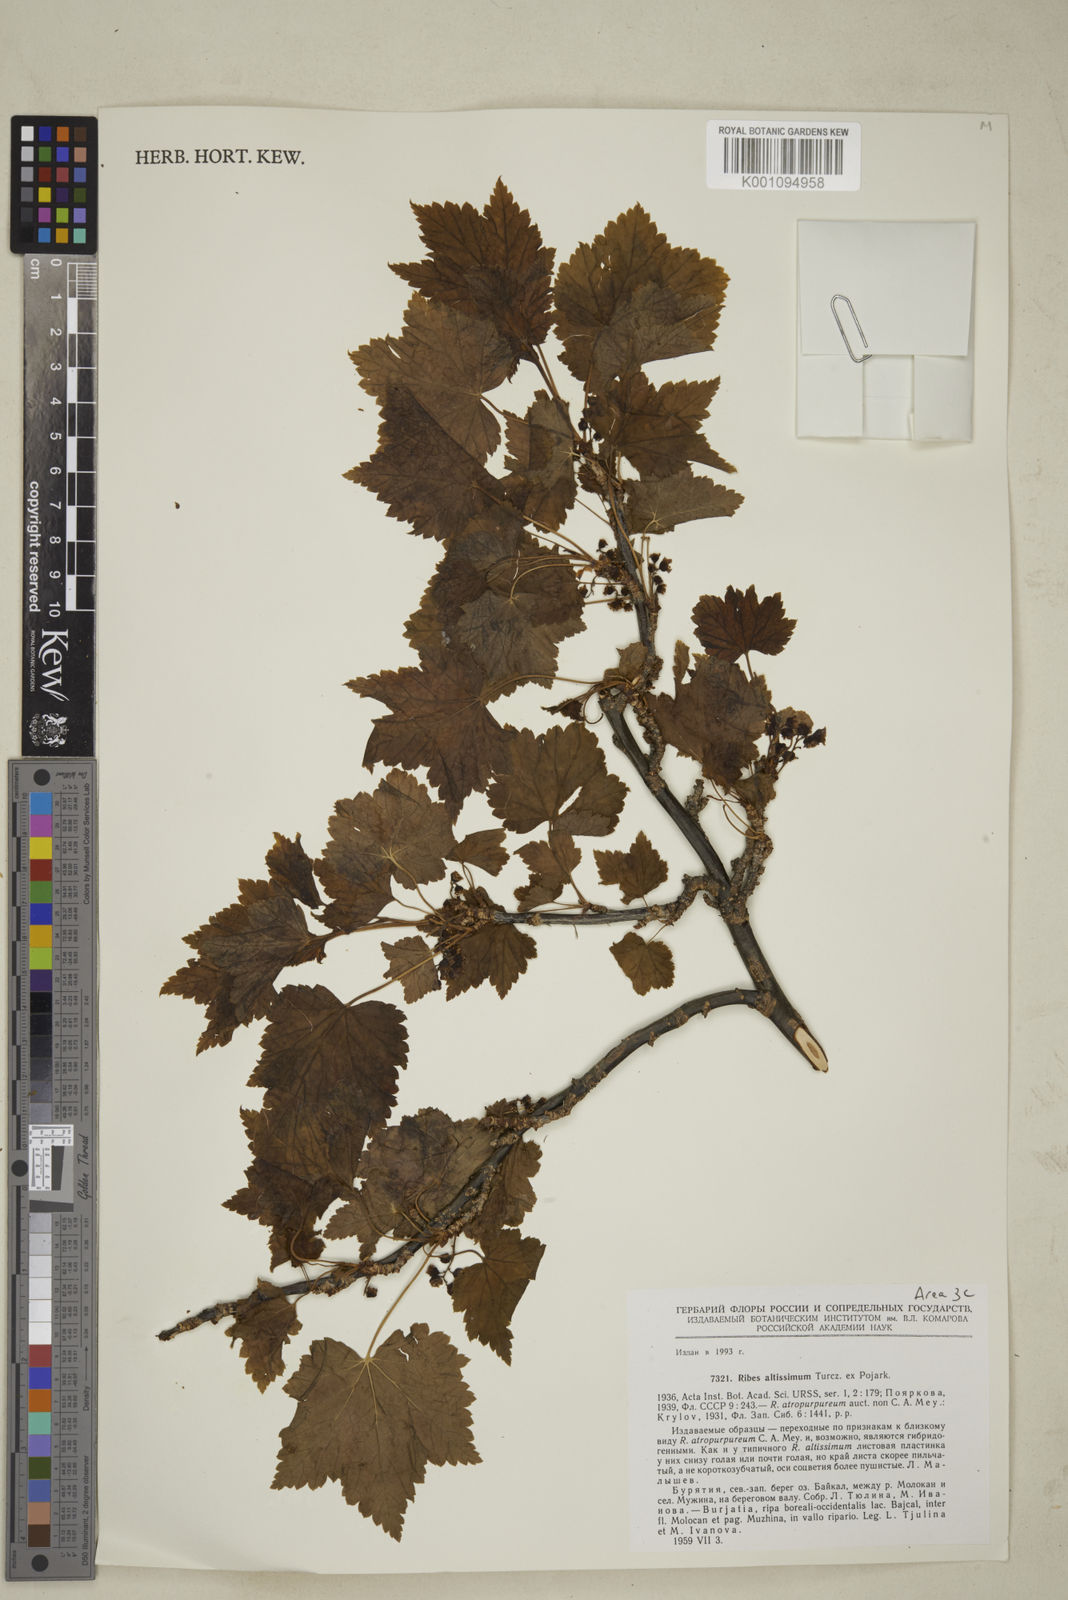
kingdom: Plantae
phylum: Tracheophyta
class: Magnoliopsida
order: Saxifragales
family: Grossulariaceae
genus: Ribes
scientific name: Ribes petraeum
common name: Rock currant
